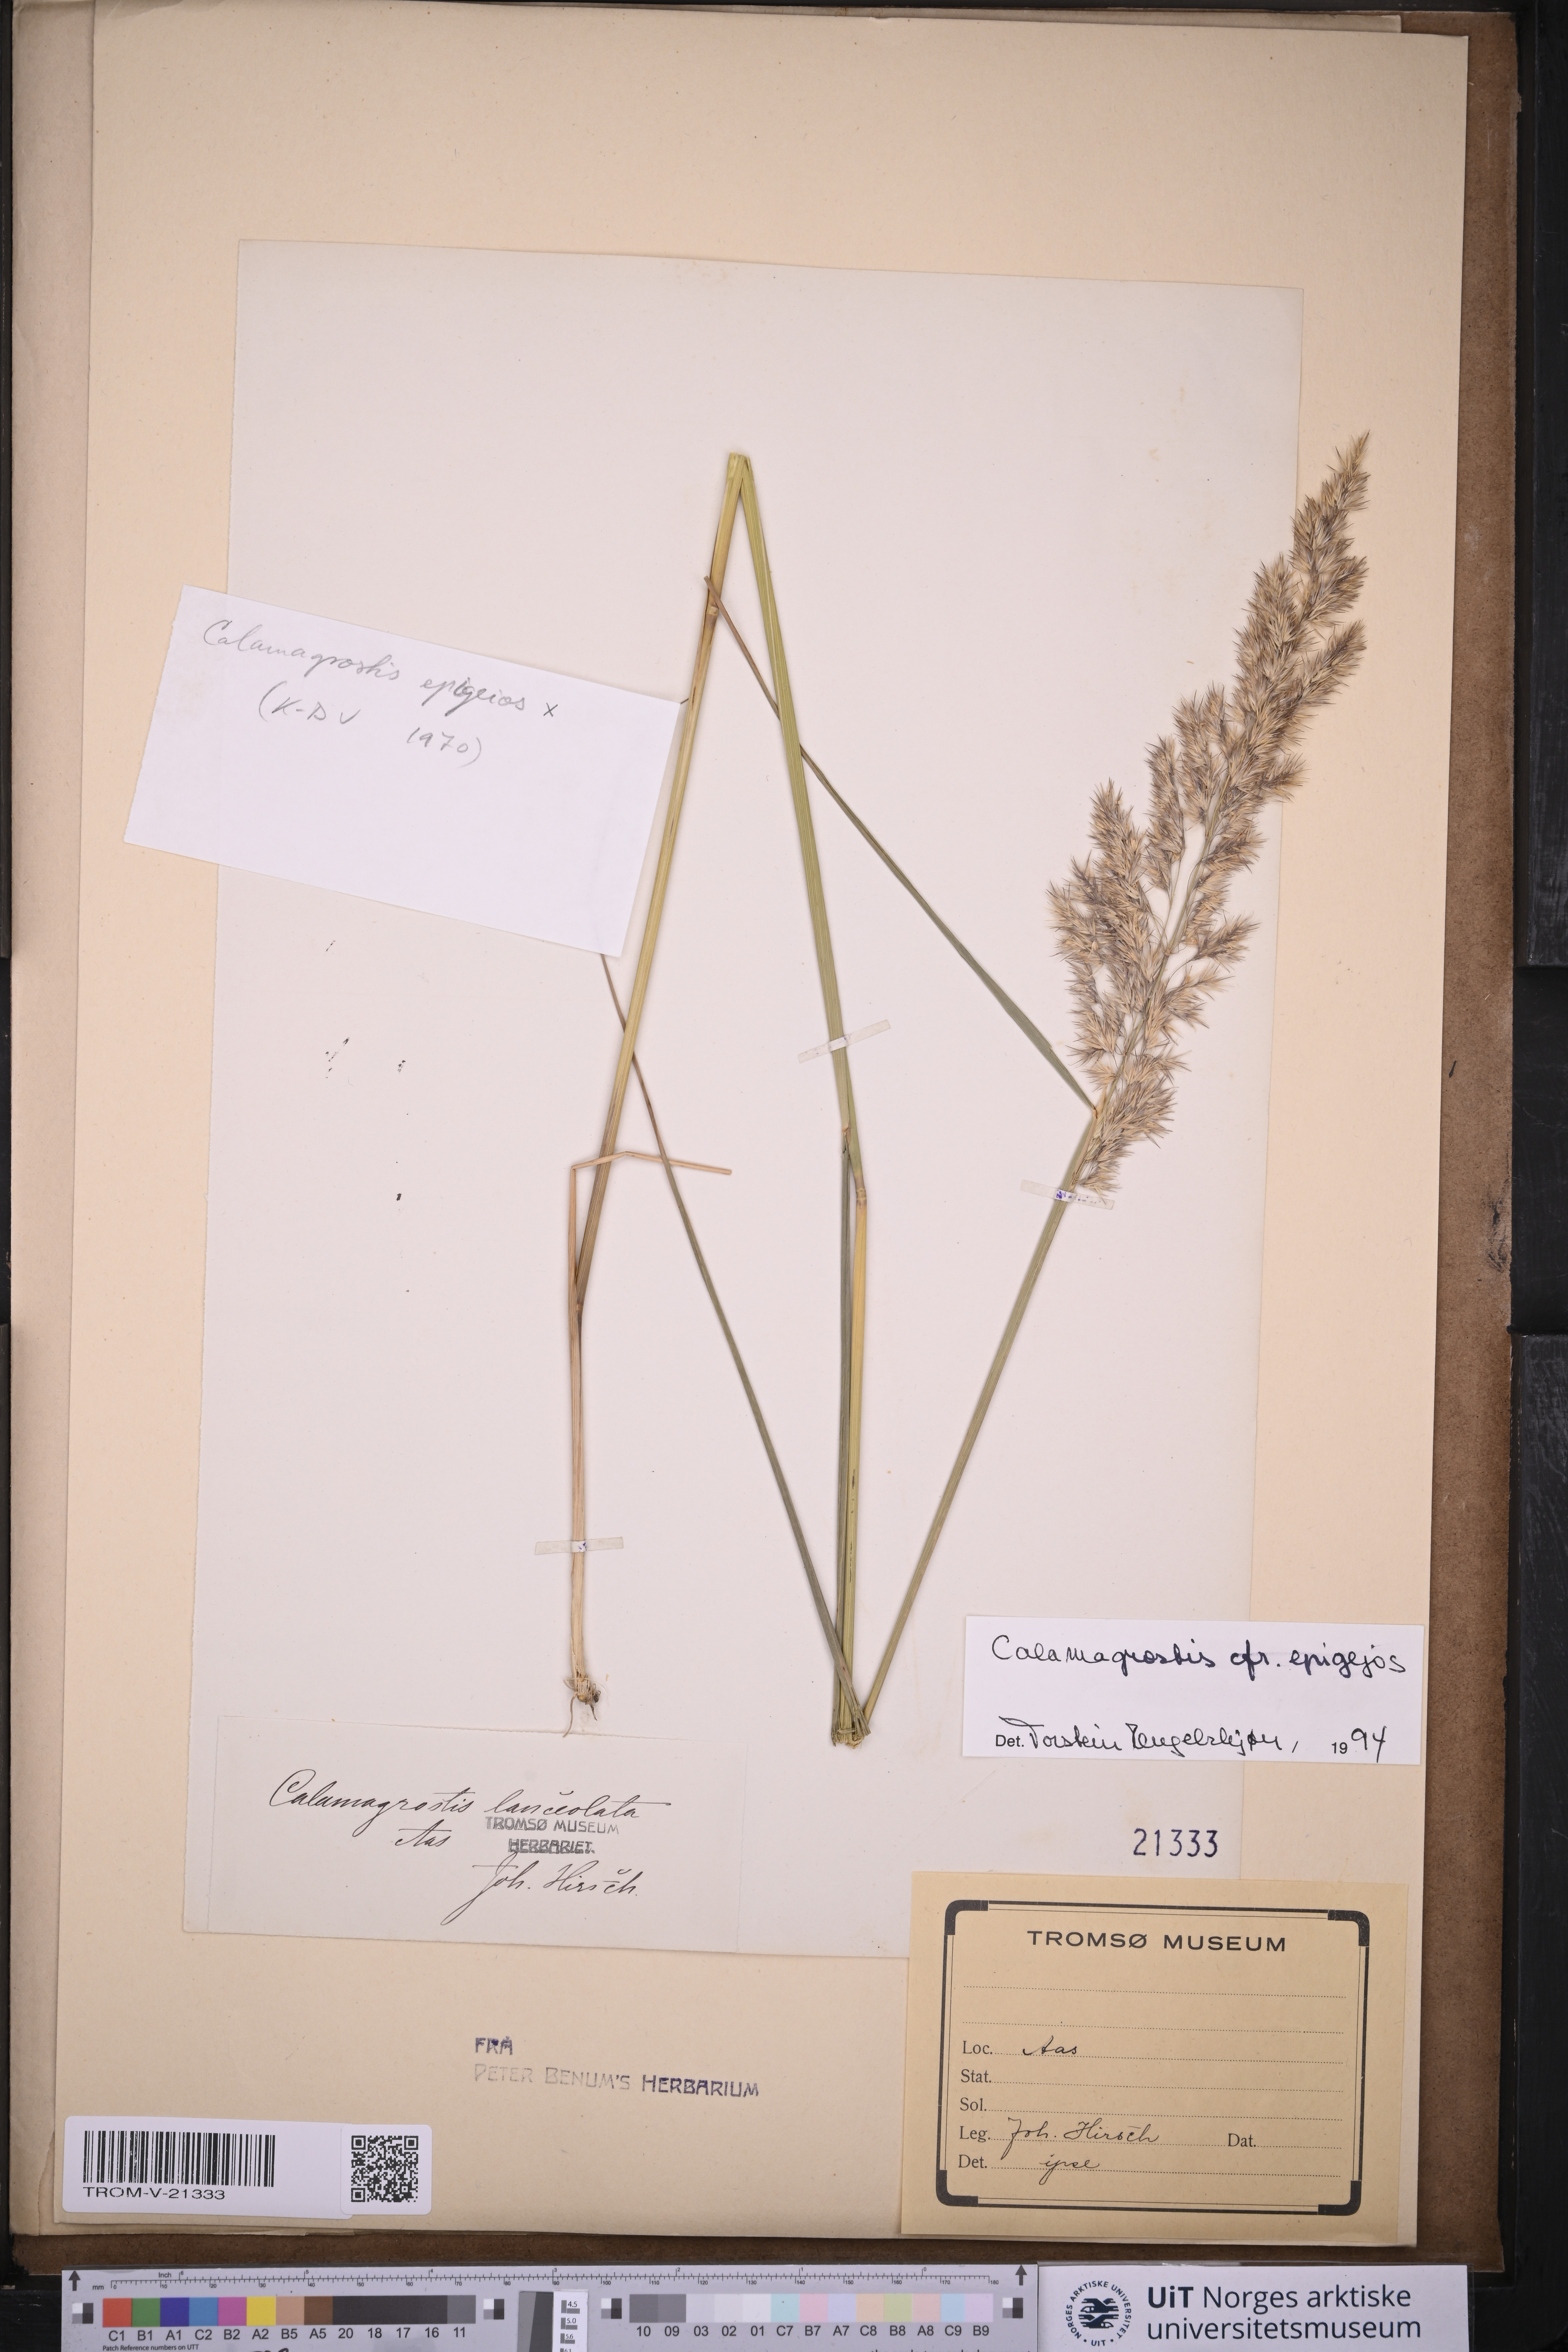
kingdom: Plantae
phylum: Tracheophyta
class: Liliopsida
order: Poales
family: Poaceae
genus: Calamagrostis
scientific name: Calamagrostis epigejos
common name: Wood small-reed
